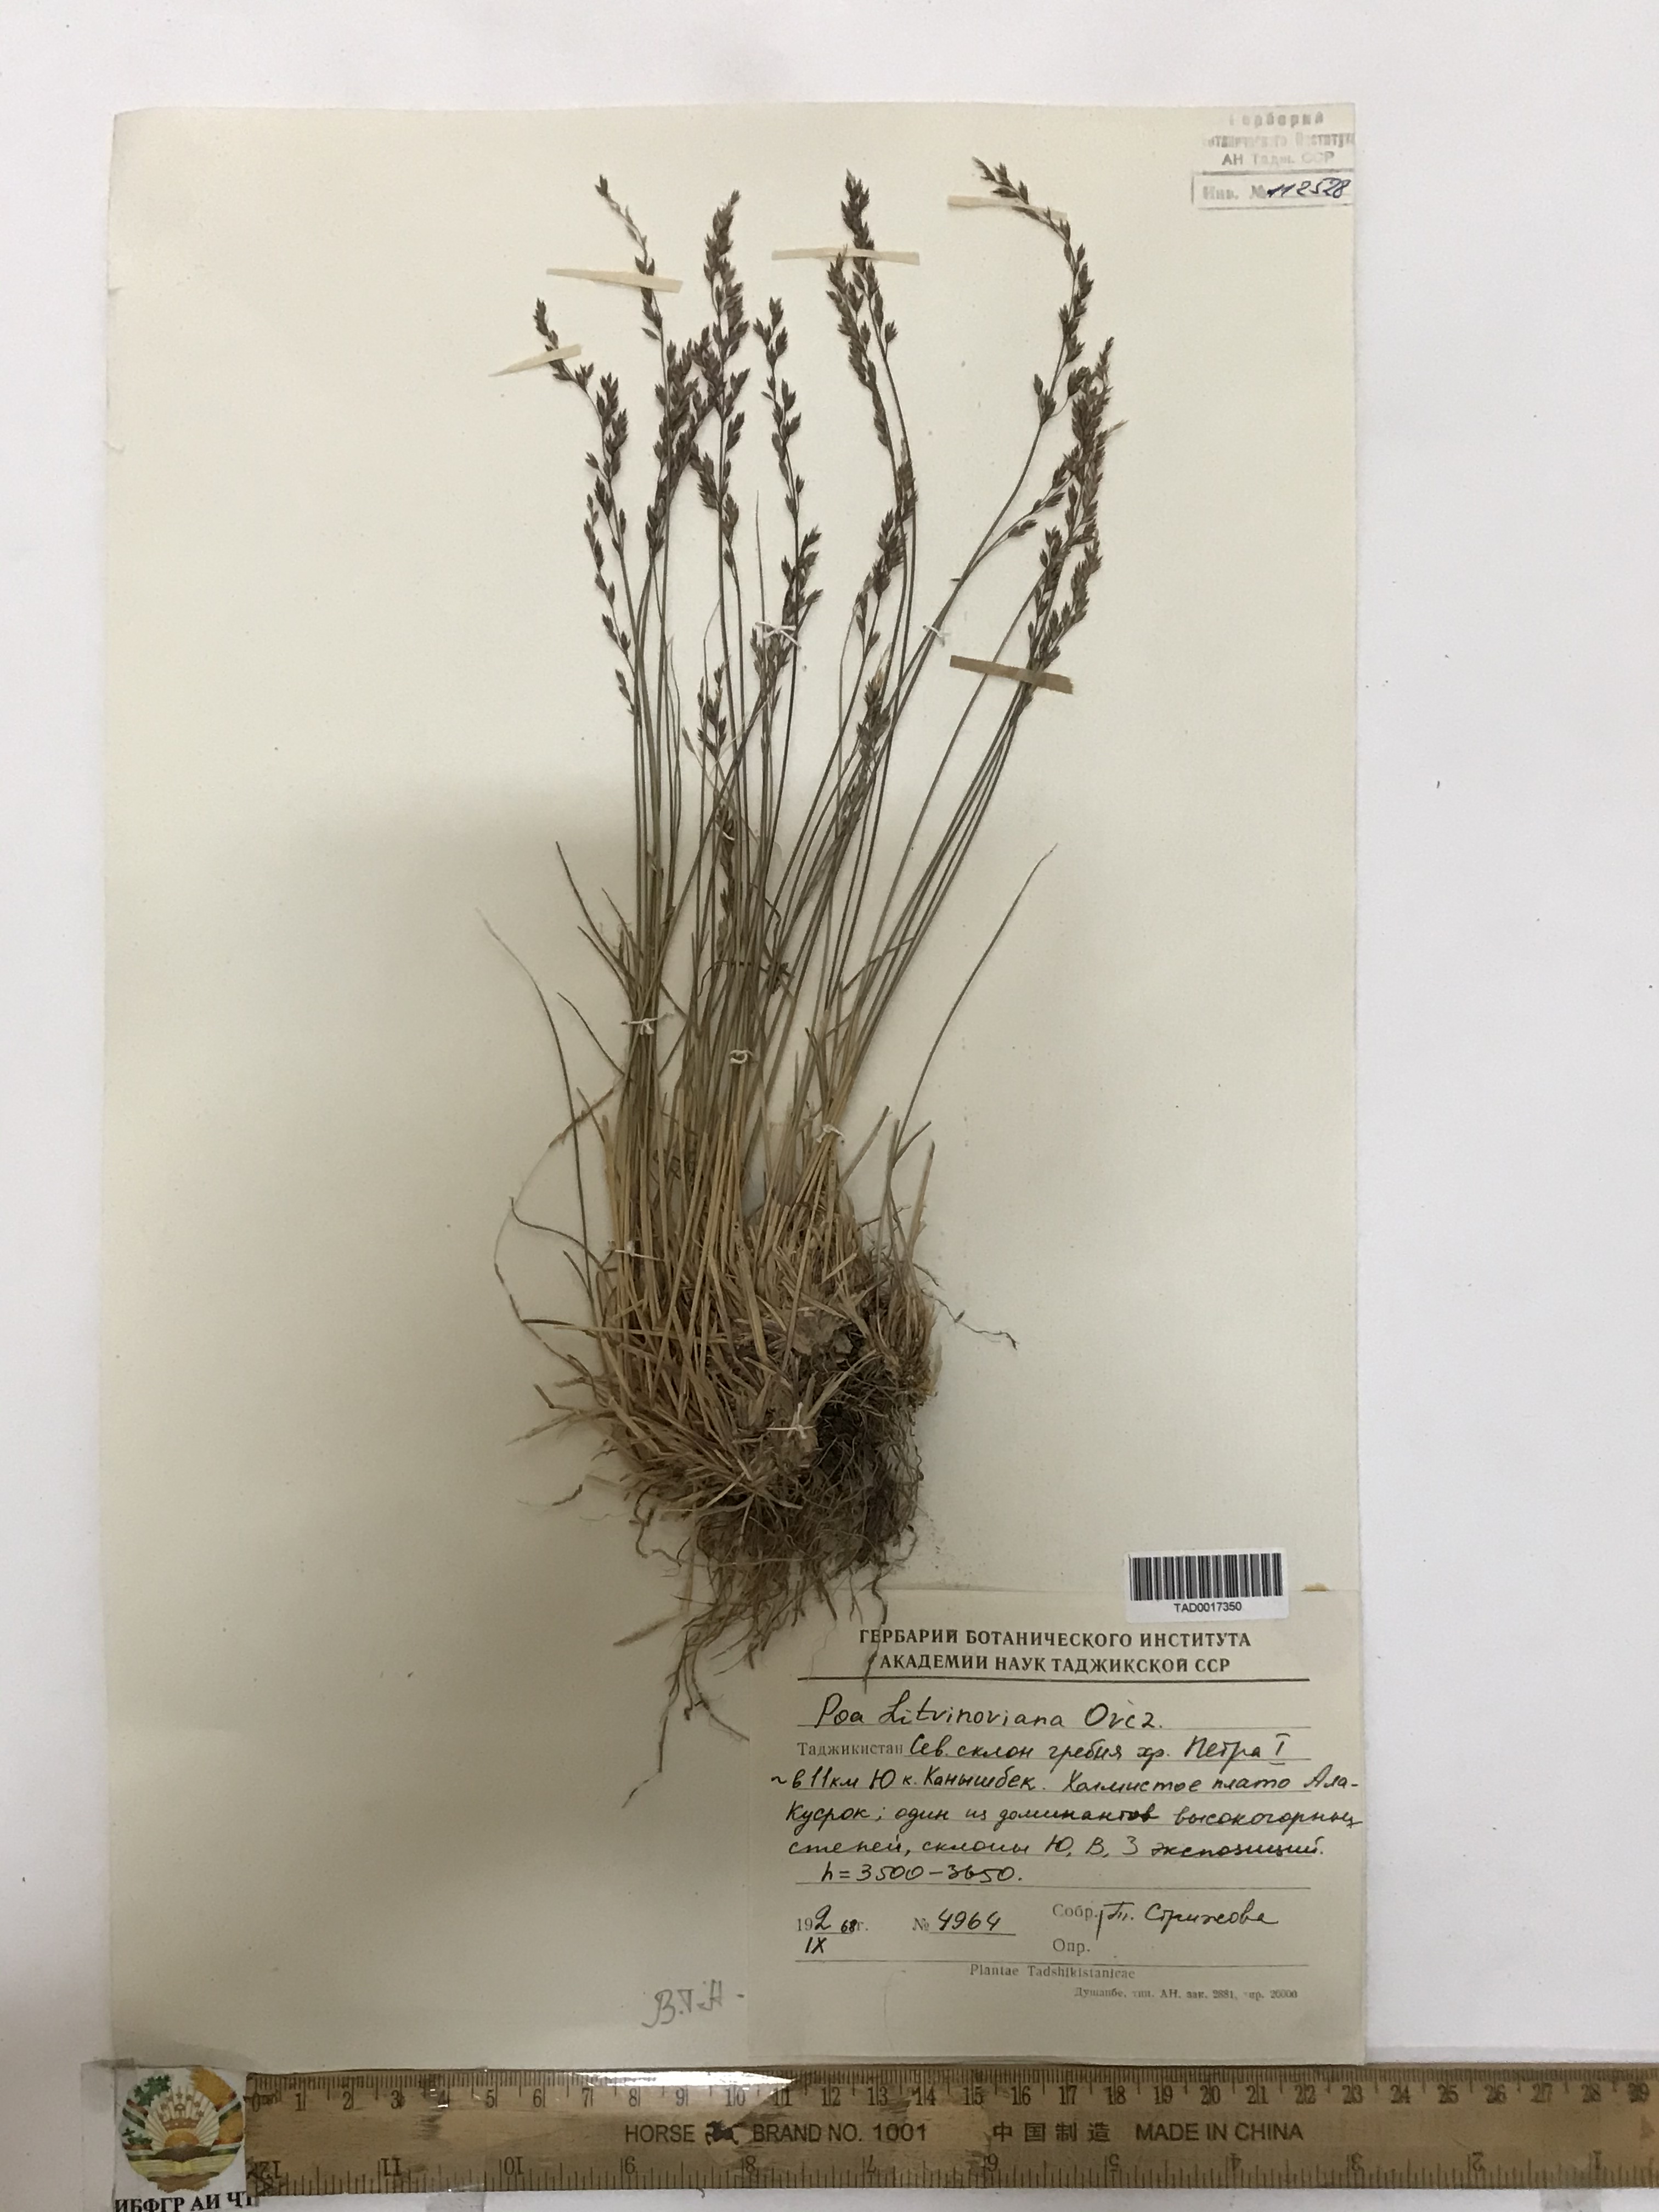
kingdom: Plantae
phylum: Tracheophyta
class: Liliopsida
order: Poales
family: Poaceae
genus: Poa
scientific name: Poa glauca
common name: Glaucous bluegrass
